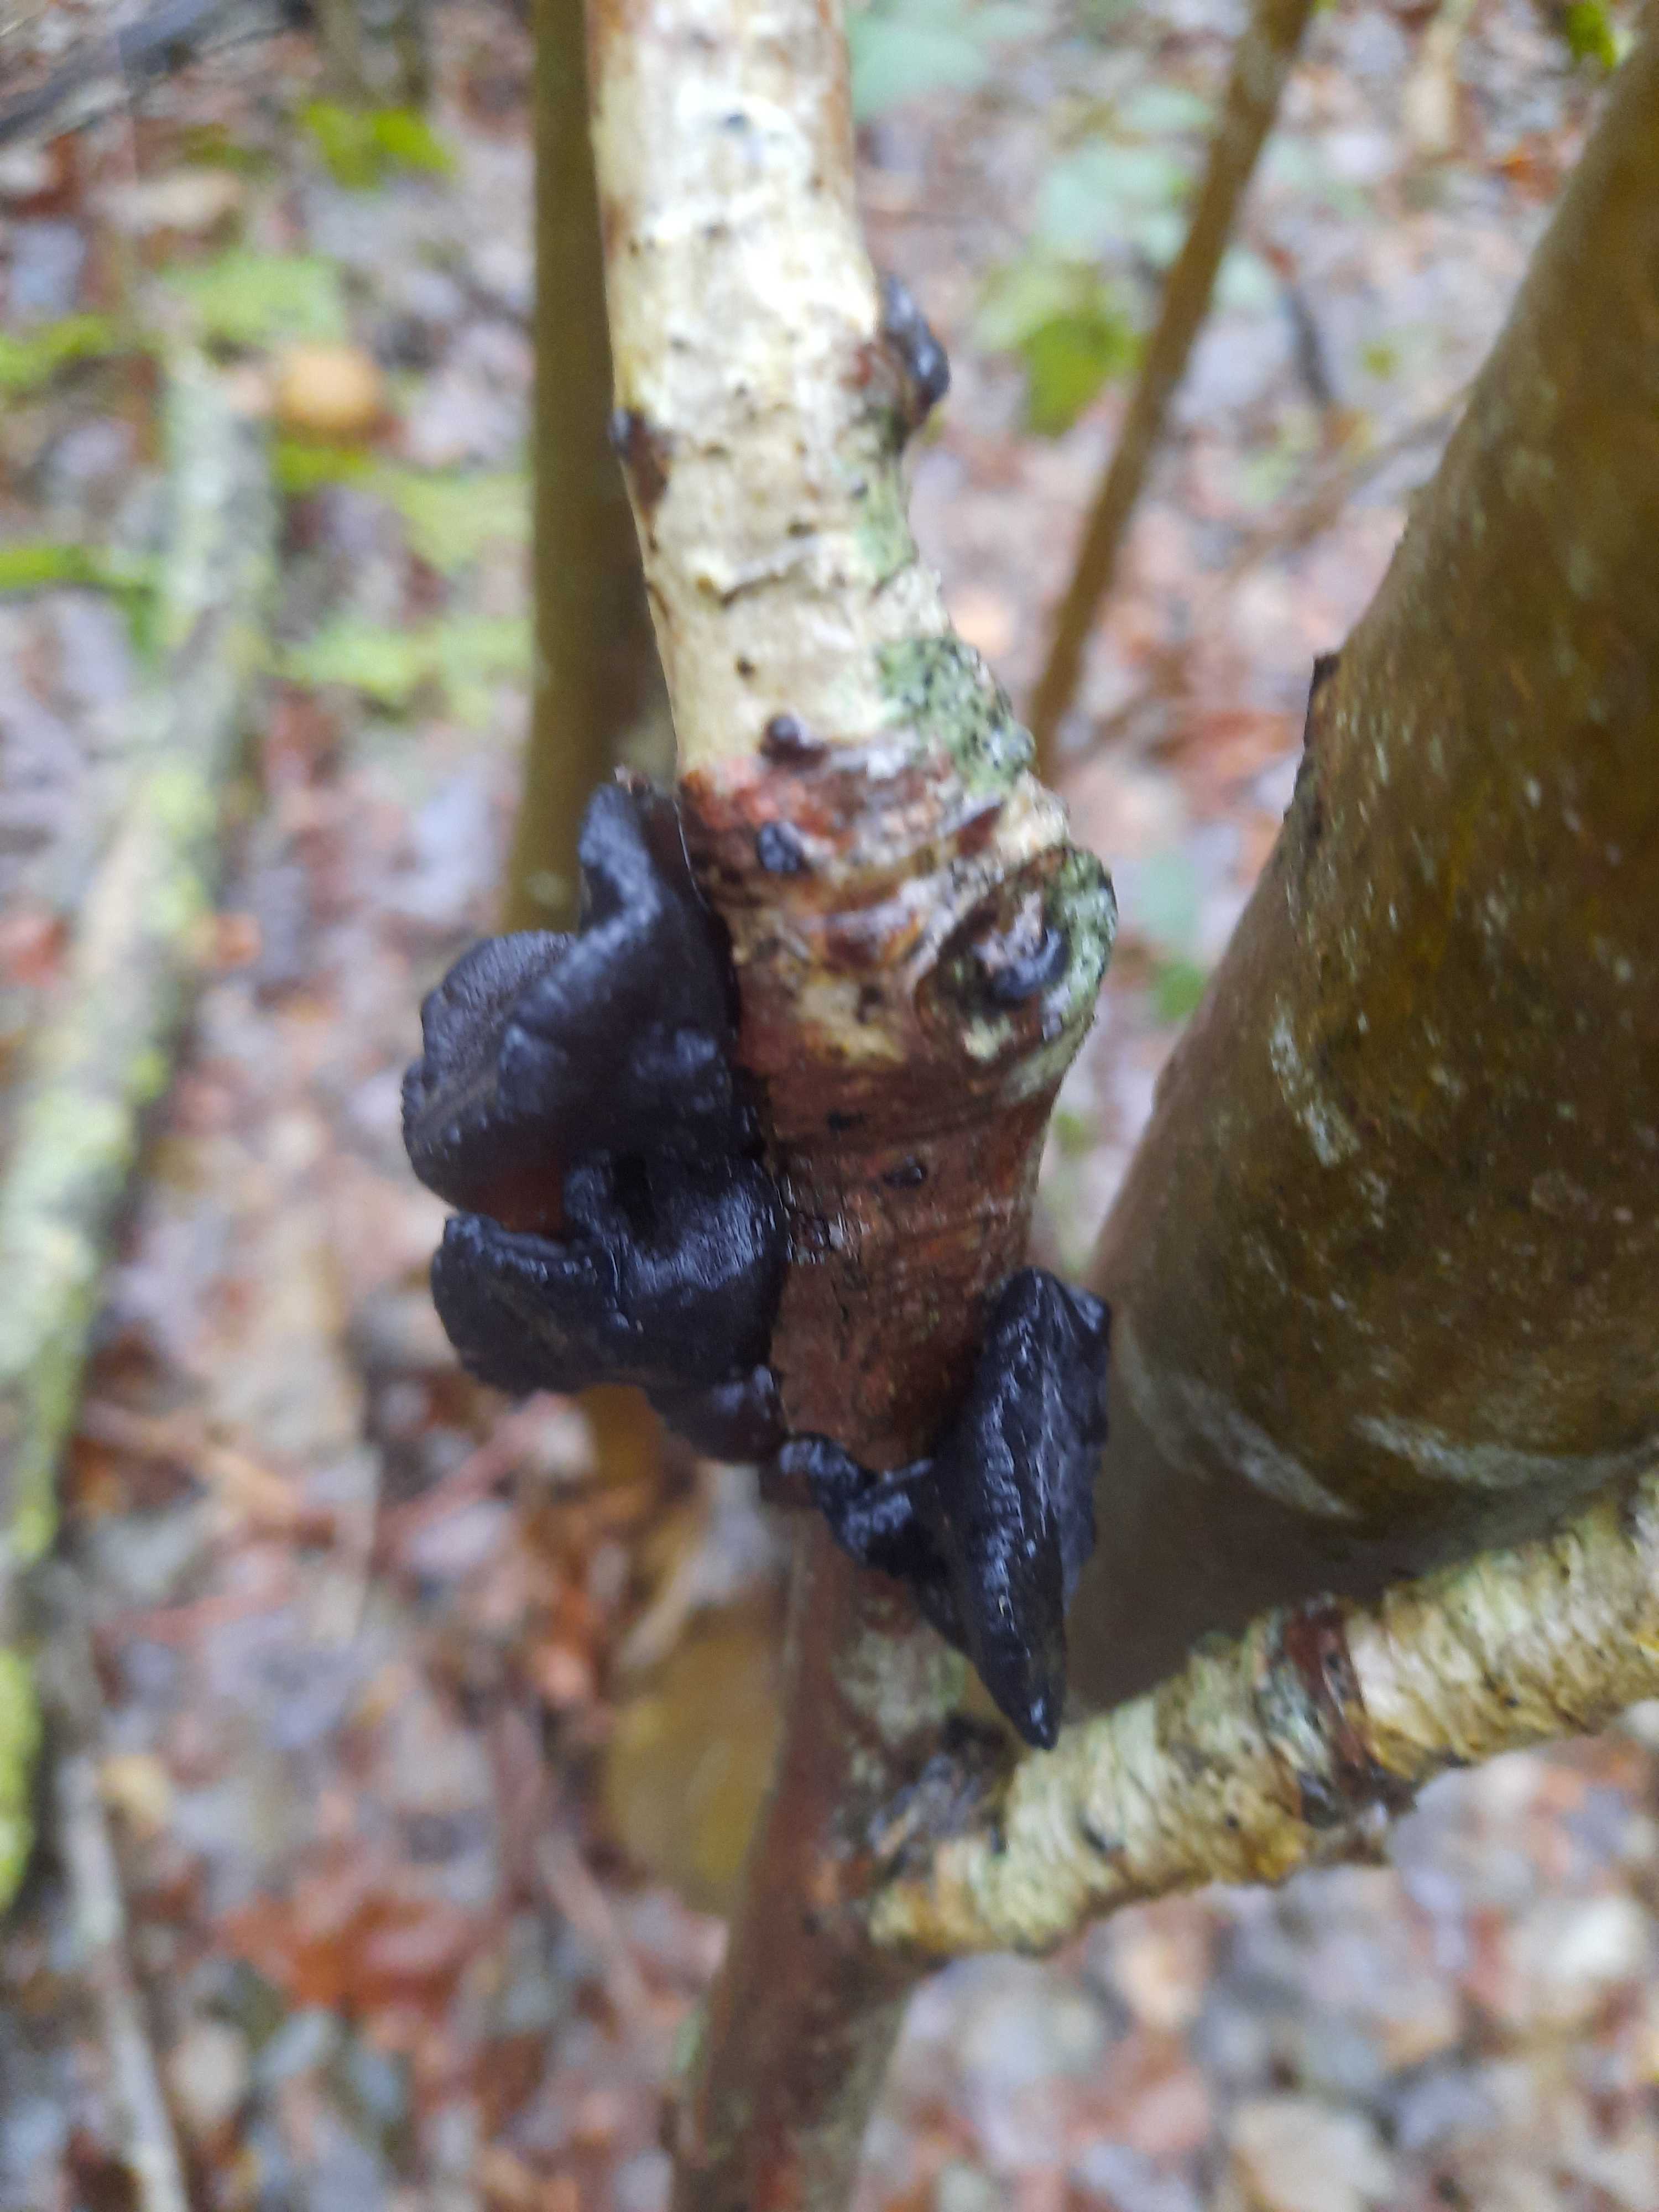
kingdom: Fungi
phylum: Basidiomycota
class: Agaricomycetes
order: Auriculariales
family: Auriculariaceae
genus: Exidia
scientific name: Exidia glandulosa
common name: ege-bævretop
